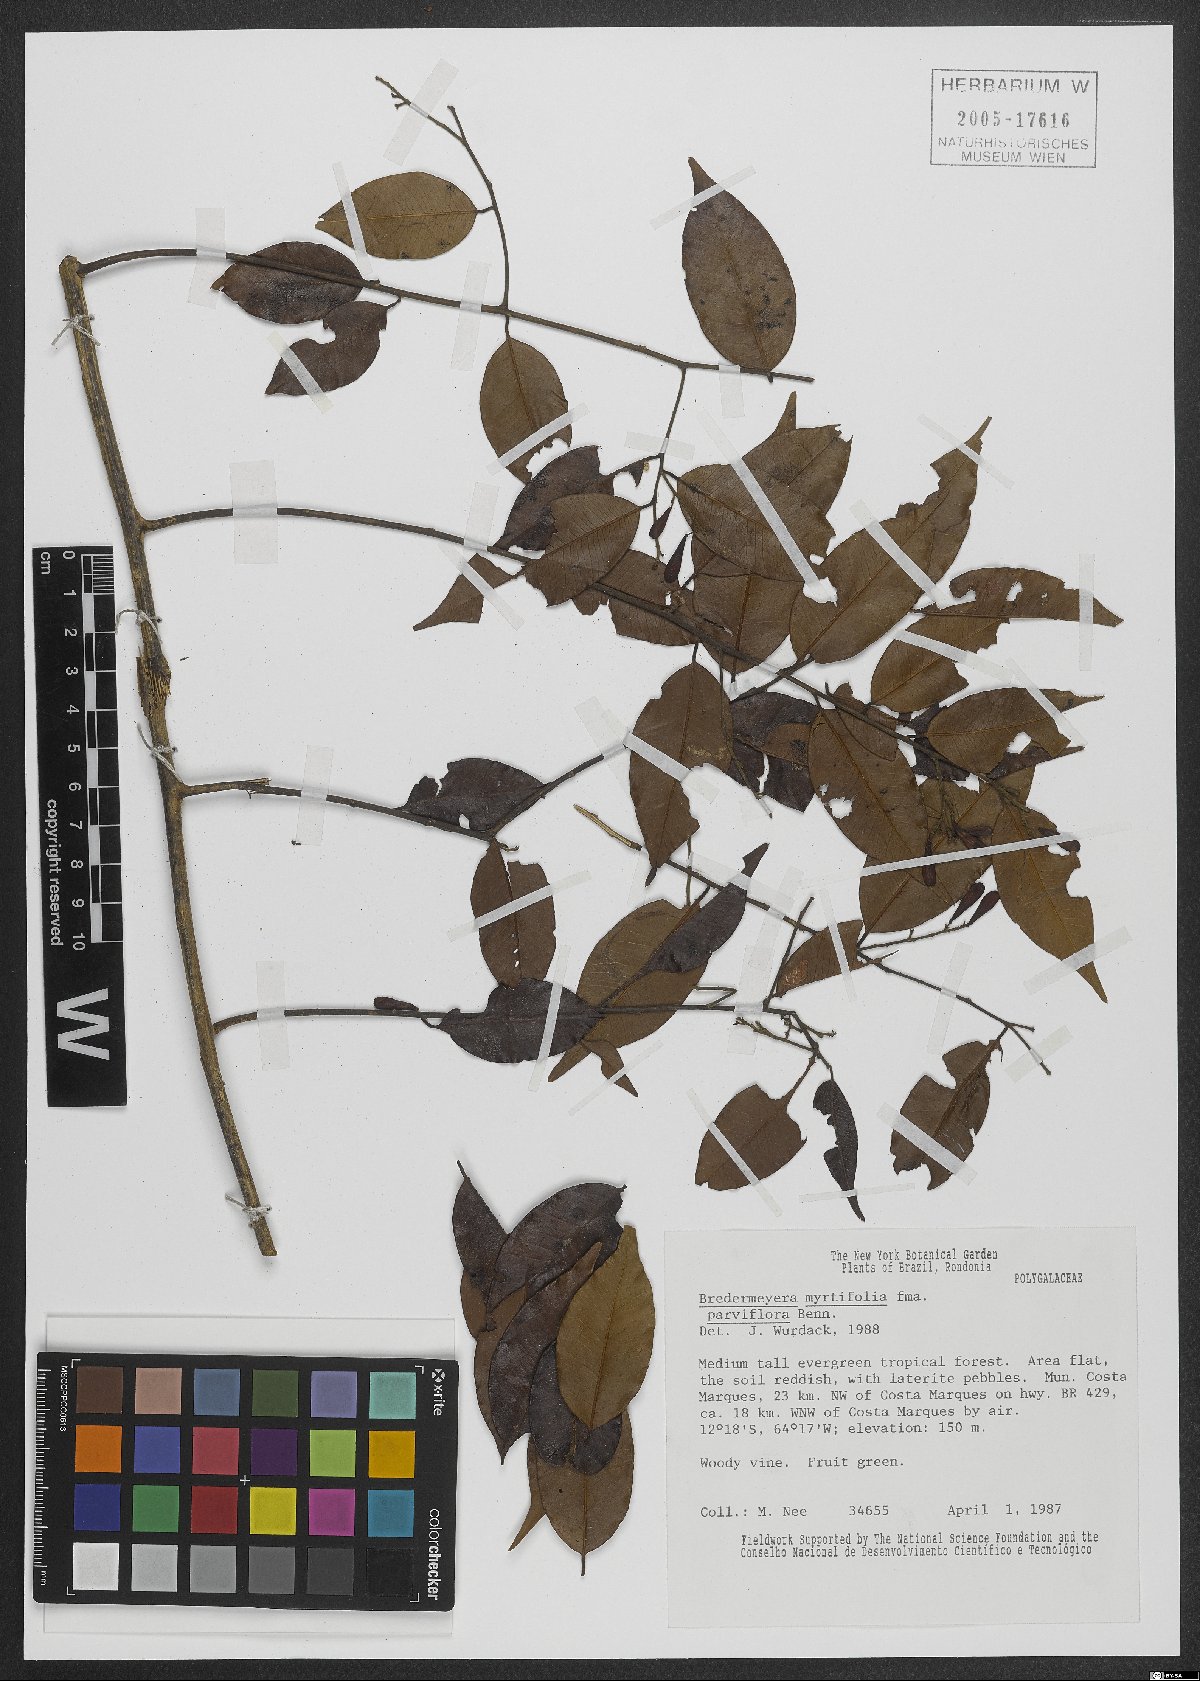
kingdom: Plantae
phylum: Tracheophyta
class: Magnoliopsida
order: Fabales
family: Polygalaceae
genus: Bredemeyera
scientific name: Bredemeyera myrtifolia
